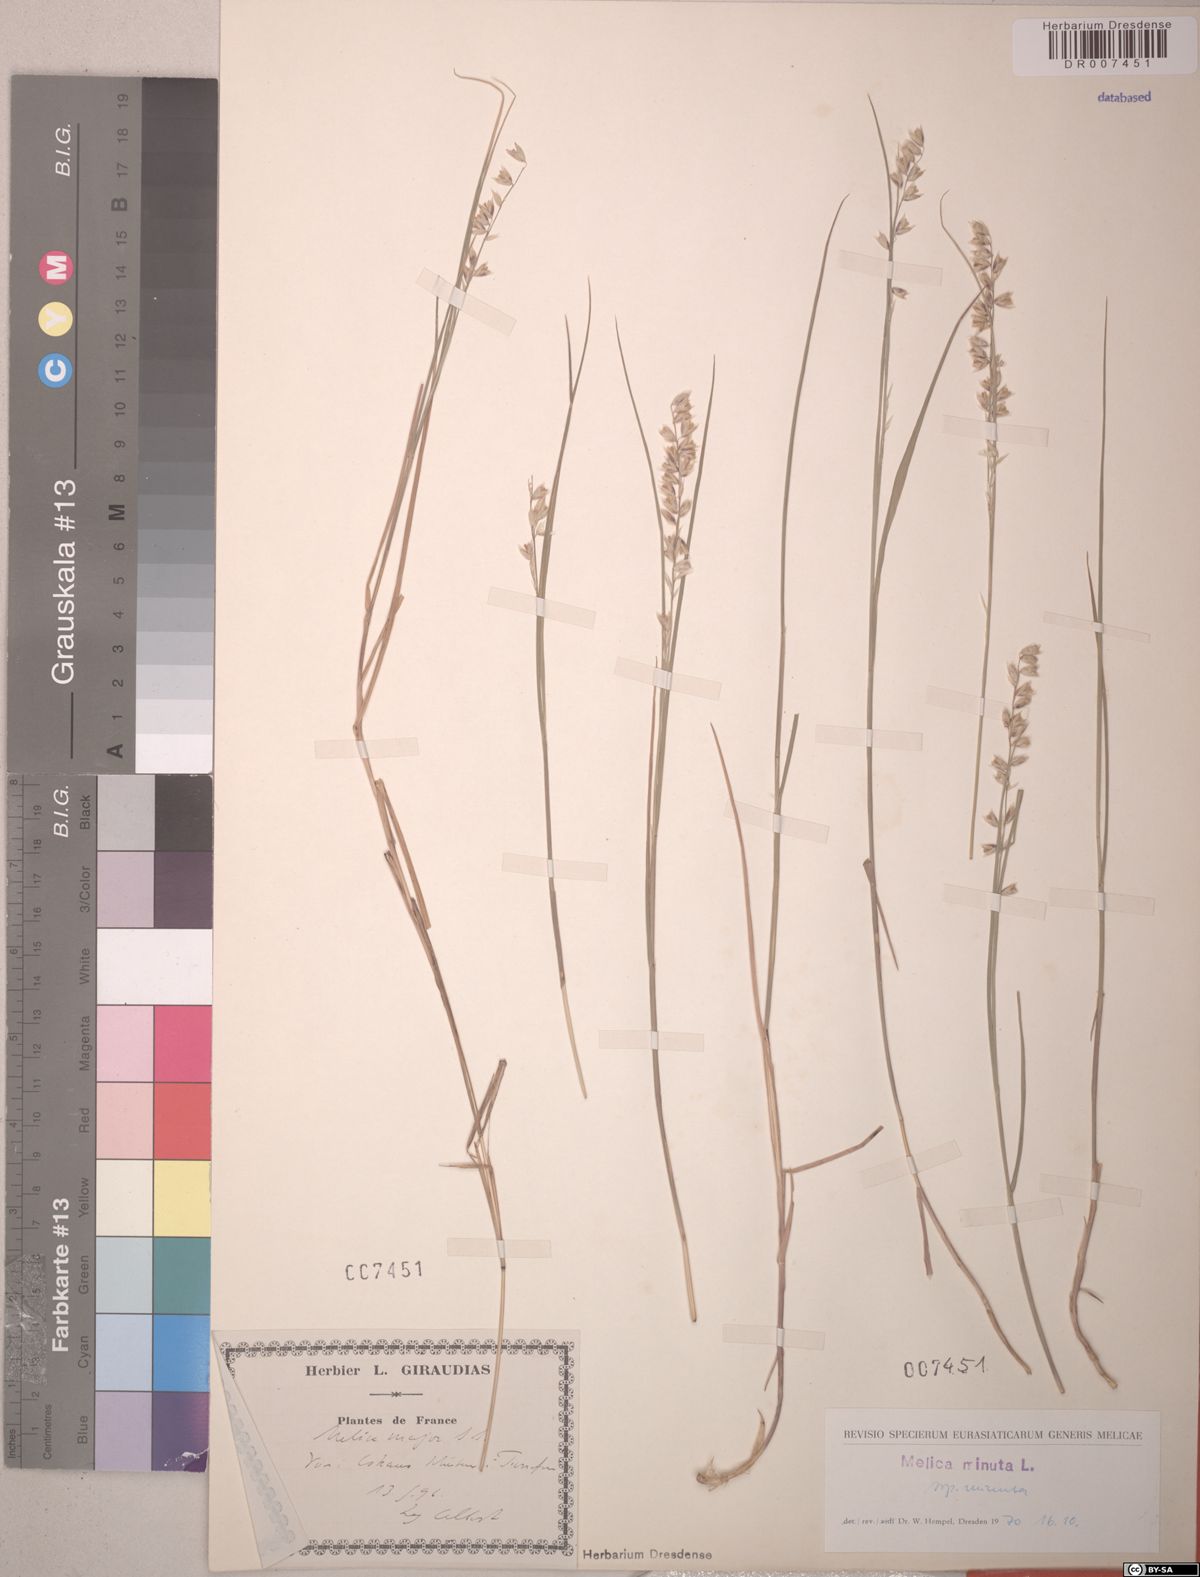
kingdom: Plantae
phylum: Tracheophyta
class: Liliopsida
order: Poales
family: Poaceae
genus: Melica
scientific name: Melica minuta
